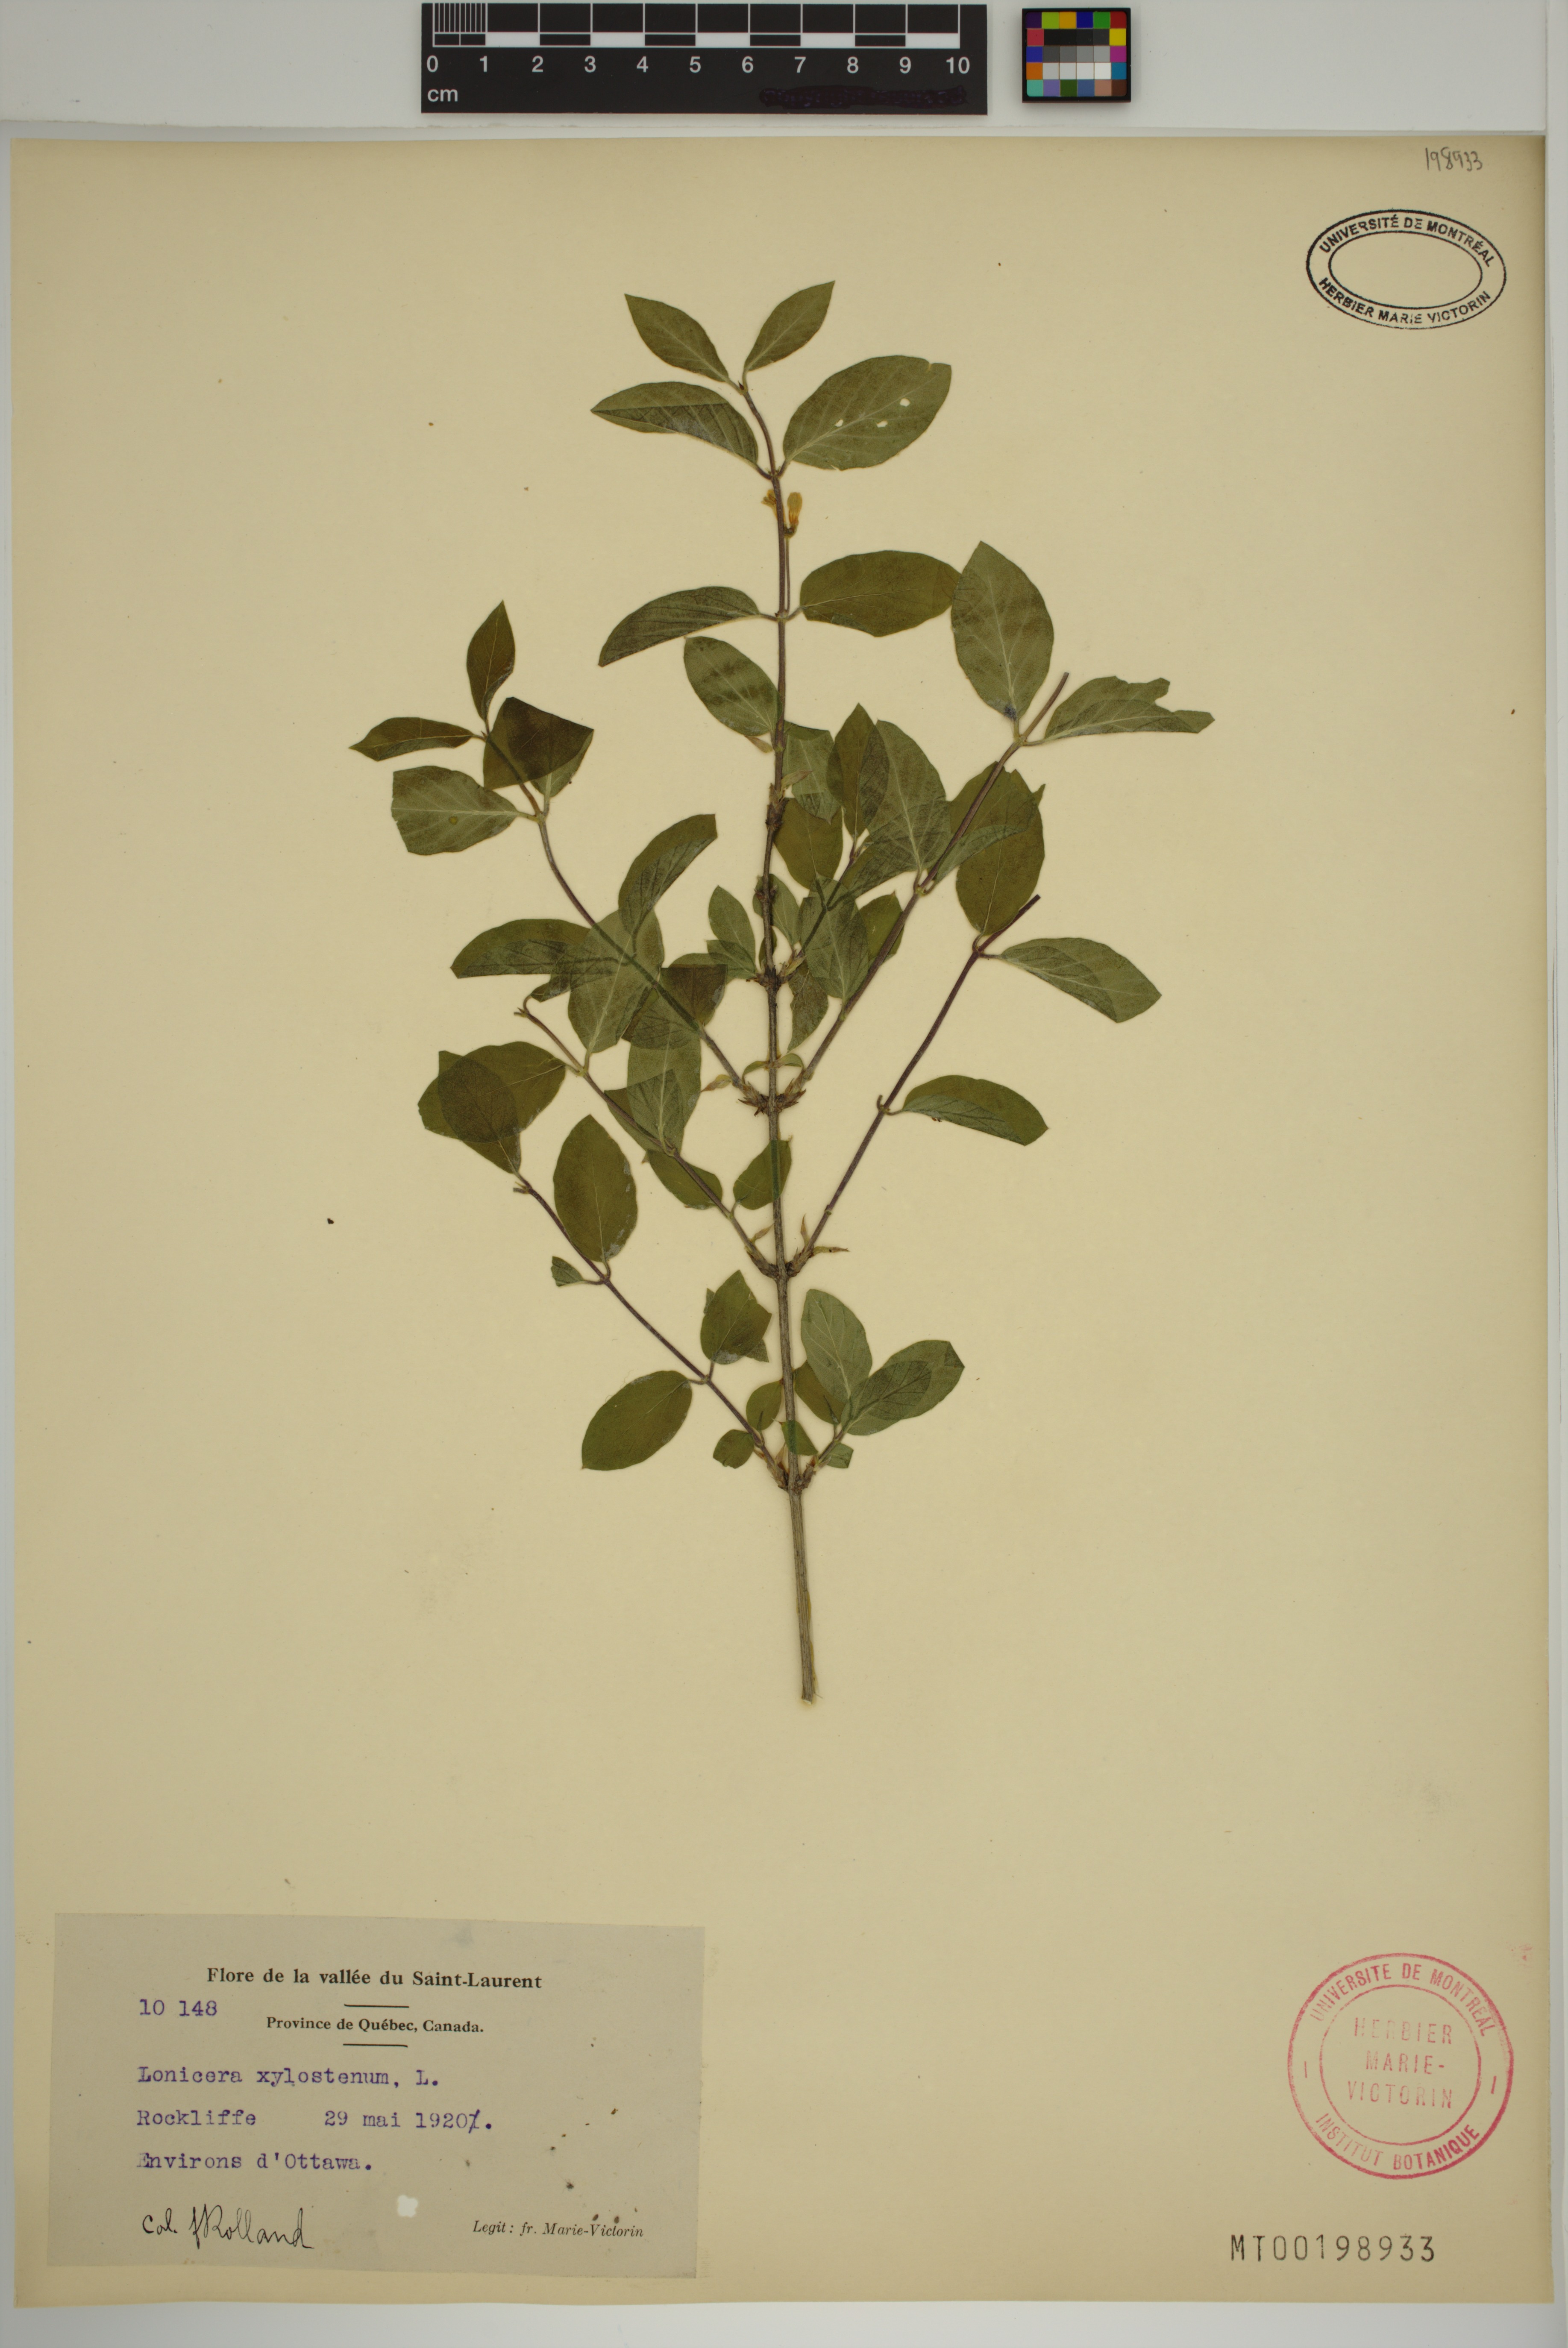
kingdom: Plantae
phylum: Tracheophyta
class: Magnoliopsida
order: Dipsacales
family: Caprifoliaceae
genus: Lonicera
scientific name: Lonicera tatarica
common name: Tatarian honeysuckle
